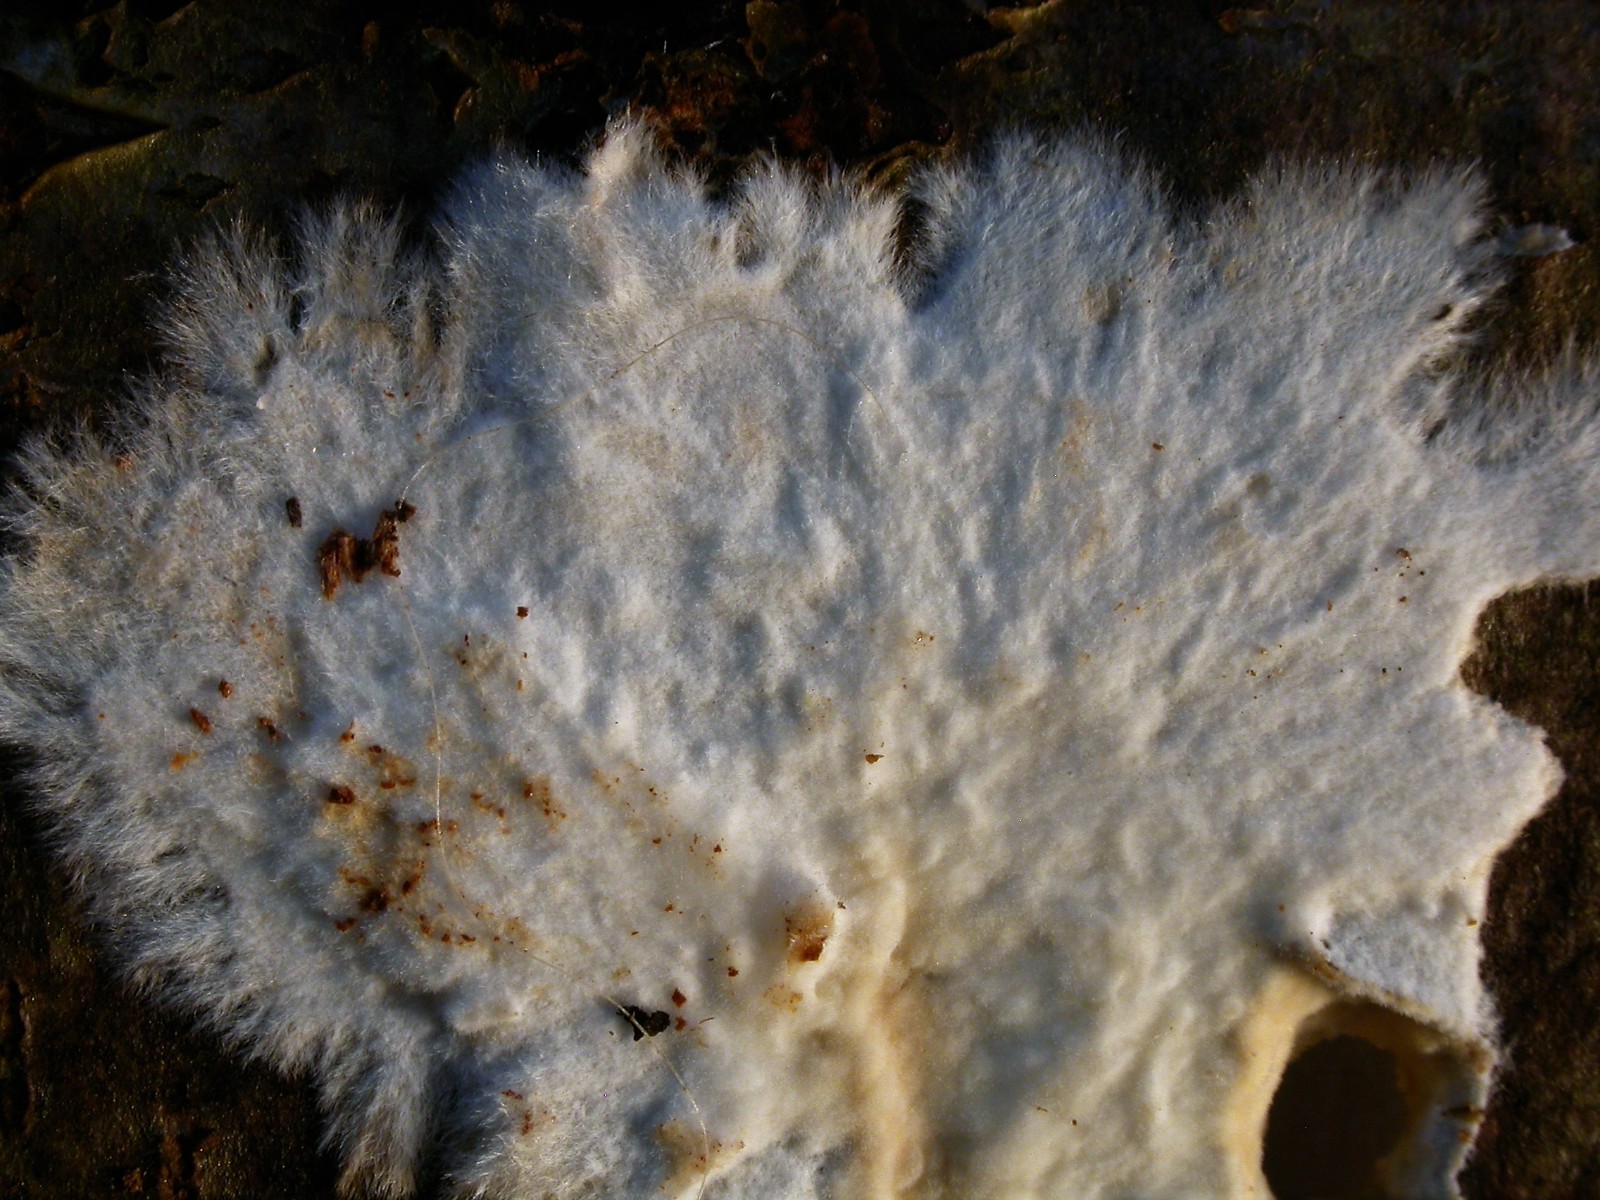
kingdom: Fungi
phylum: Basidiomycota
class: Agaricomycetes
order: Polyporales
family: Phanerochaetaceae
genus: Phanerochaete
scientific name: Phanerochaete sordida
